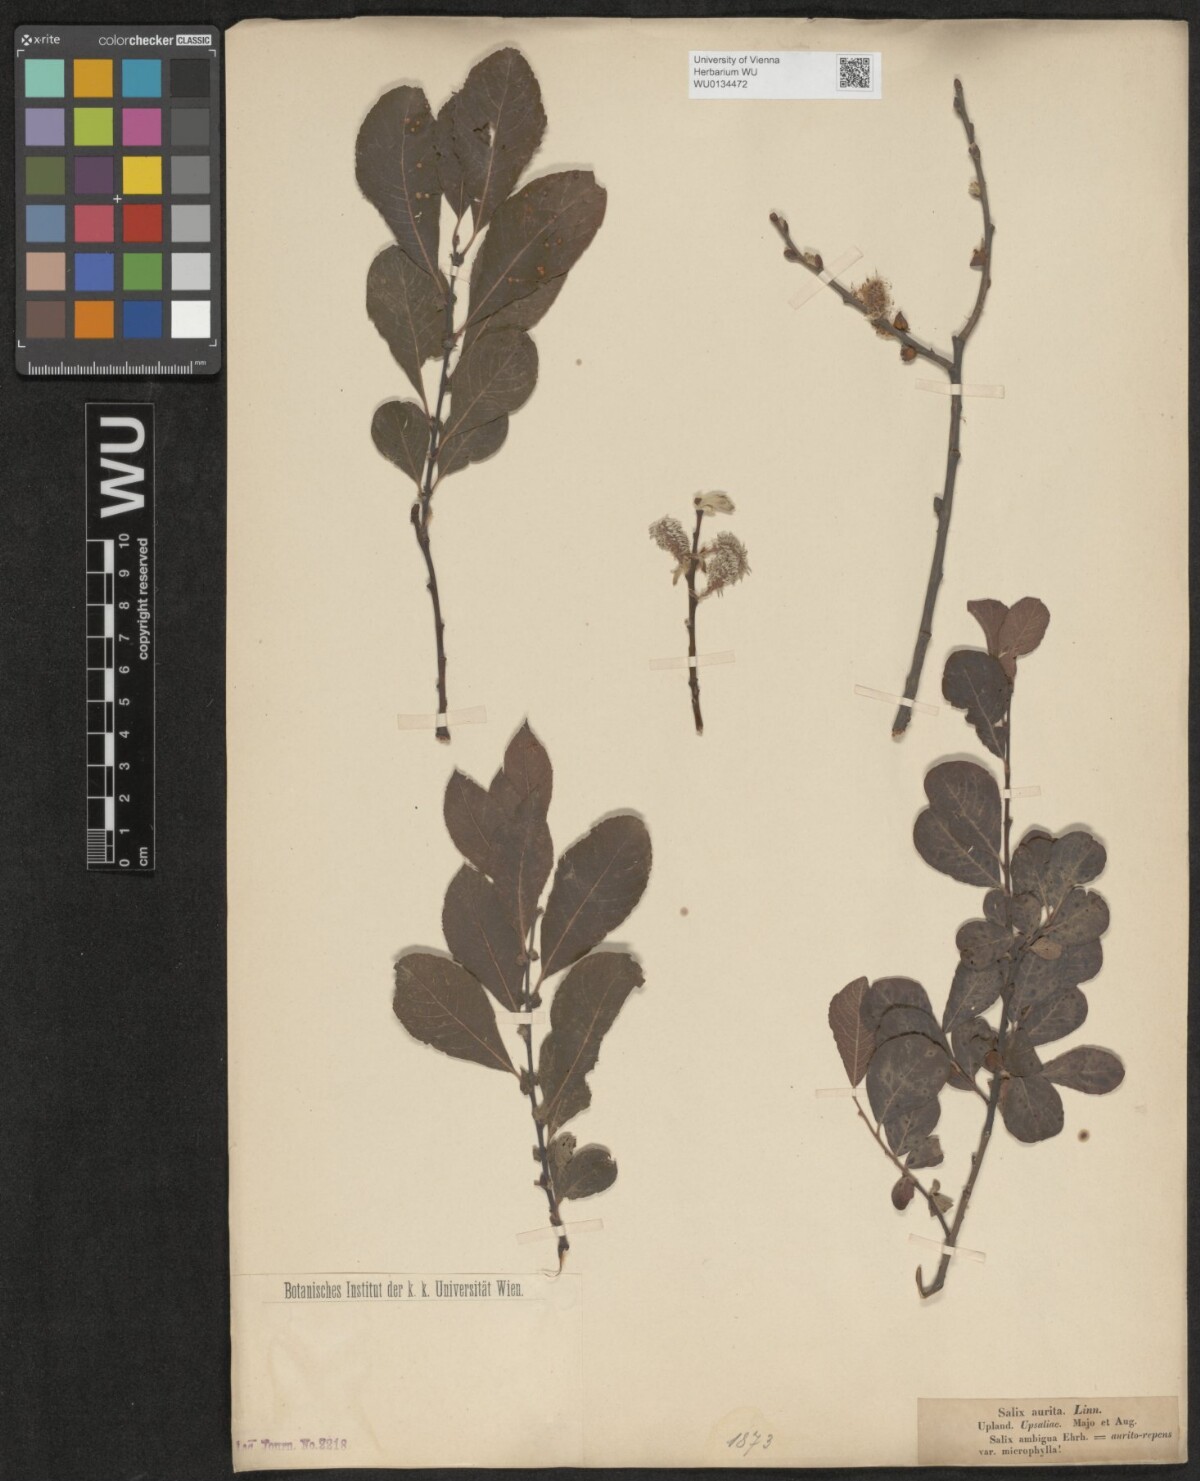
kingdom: Plantae
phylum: Tracheophyta
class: Magnoliopsida
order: Malpighiales
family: Salicaceae
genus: Salix
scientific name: Salix aurita
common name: Eared willow
